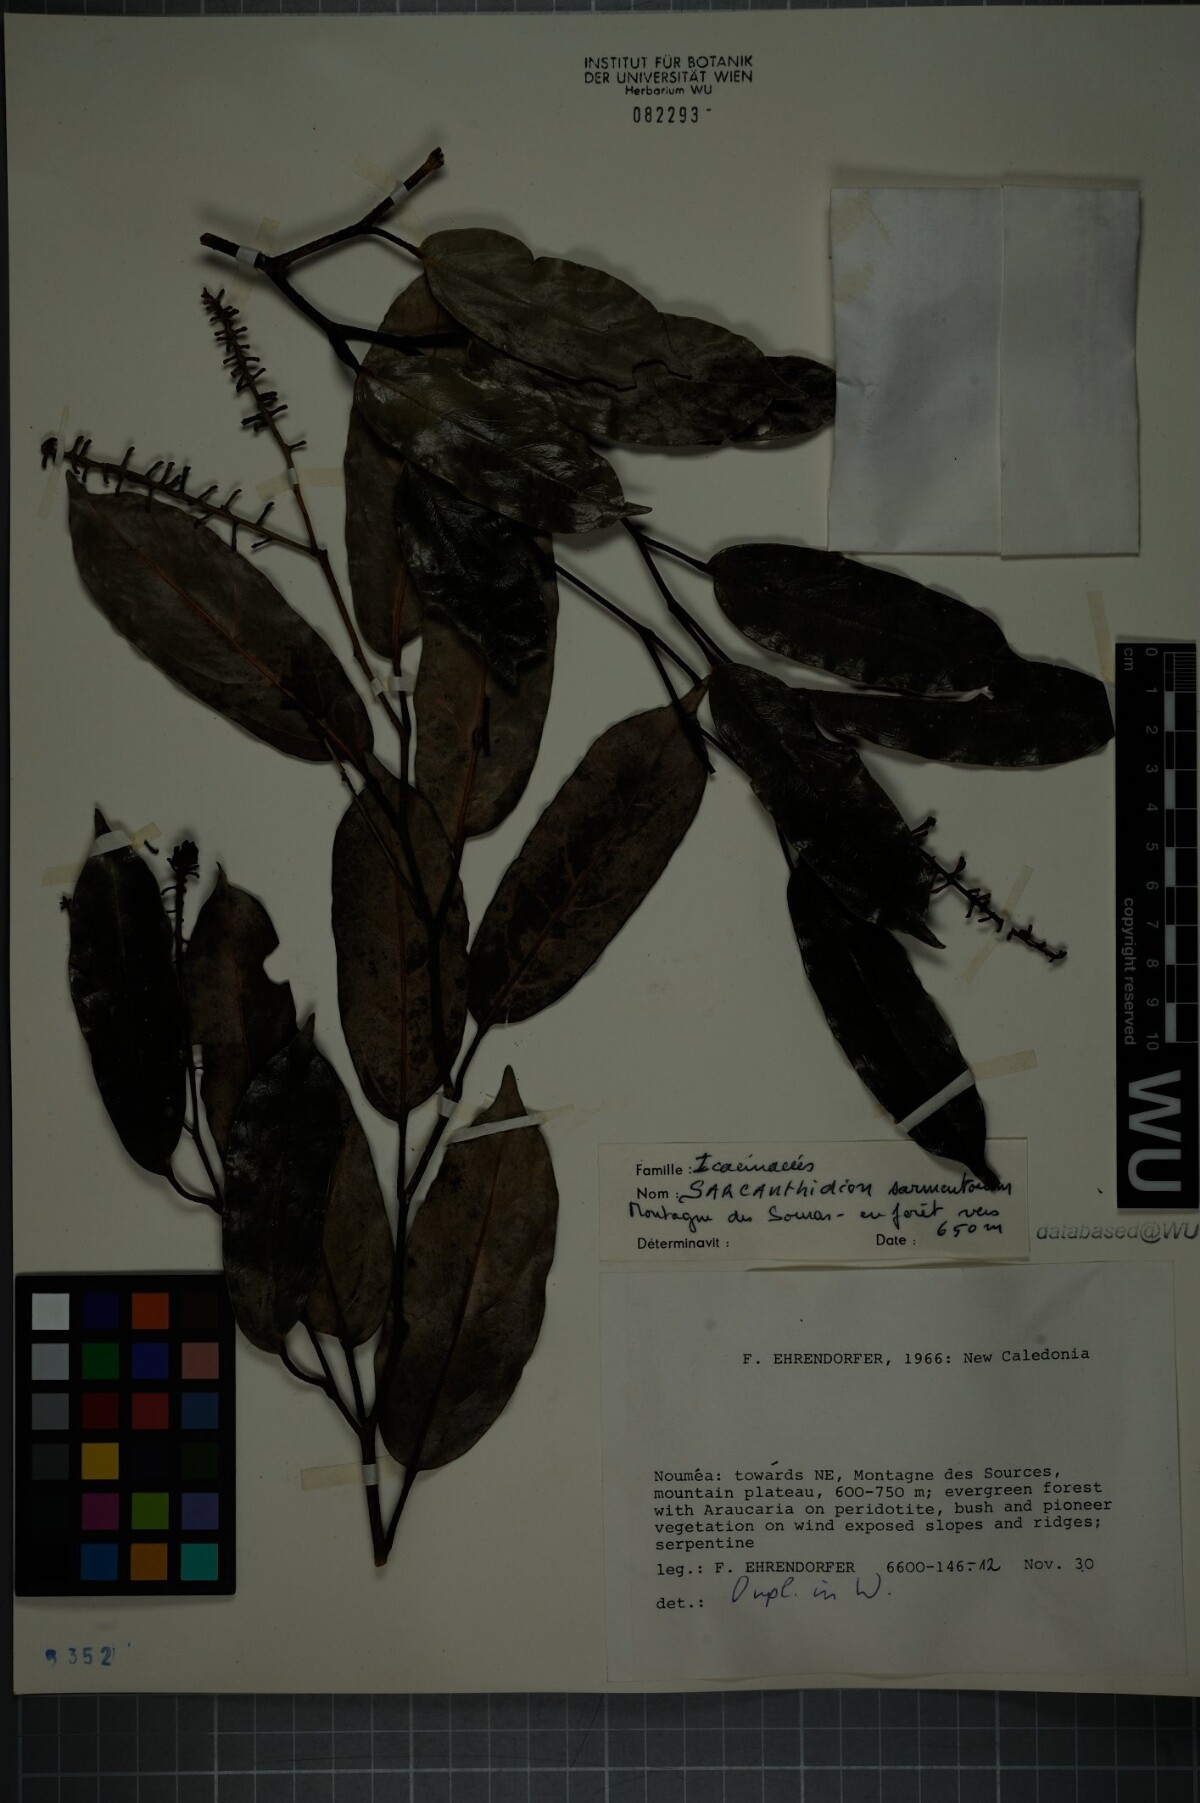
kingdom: Plantae
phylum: Tracheophyta
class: Magnoliopsida
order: Cardiopteridales
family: Cardiopteridaceae
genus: Citronella
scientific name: Citronella sarmentosa
